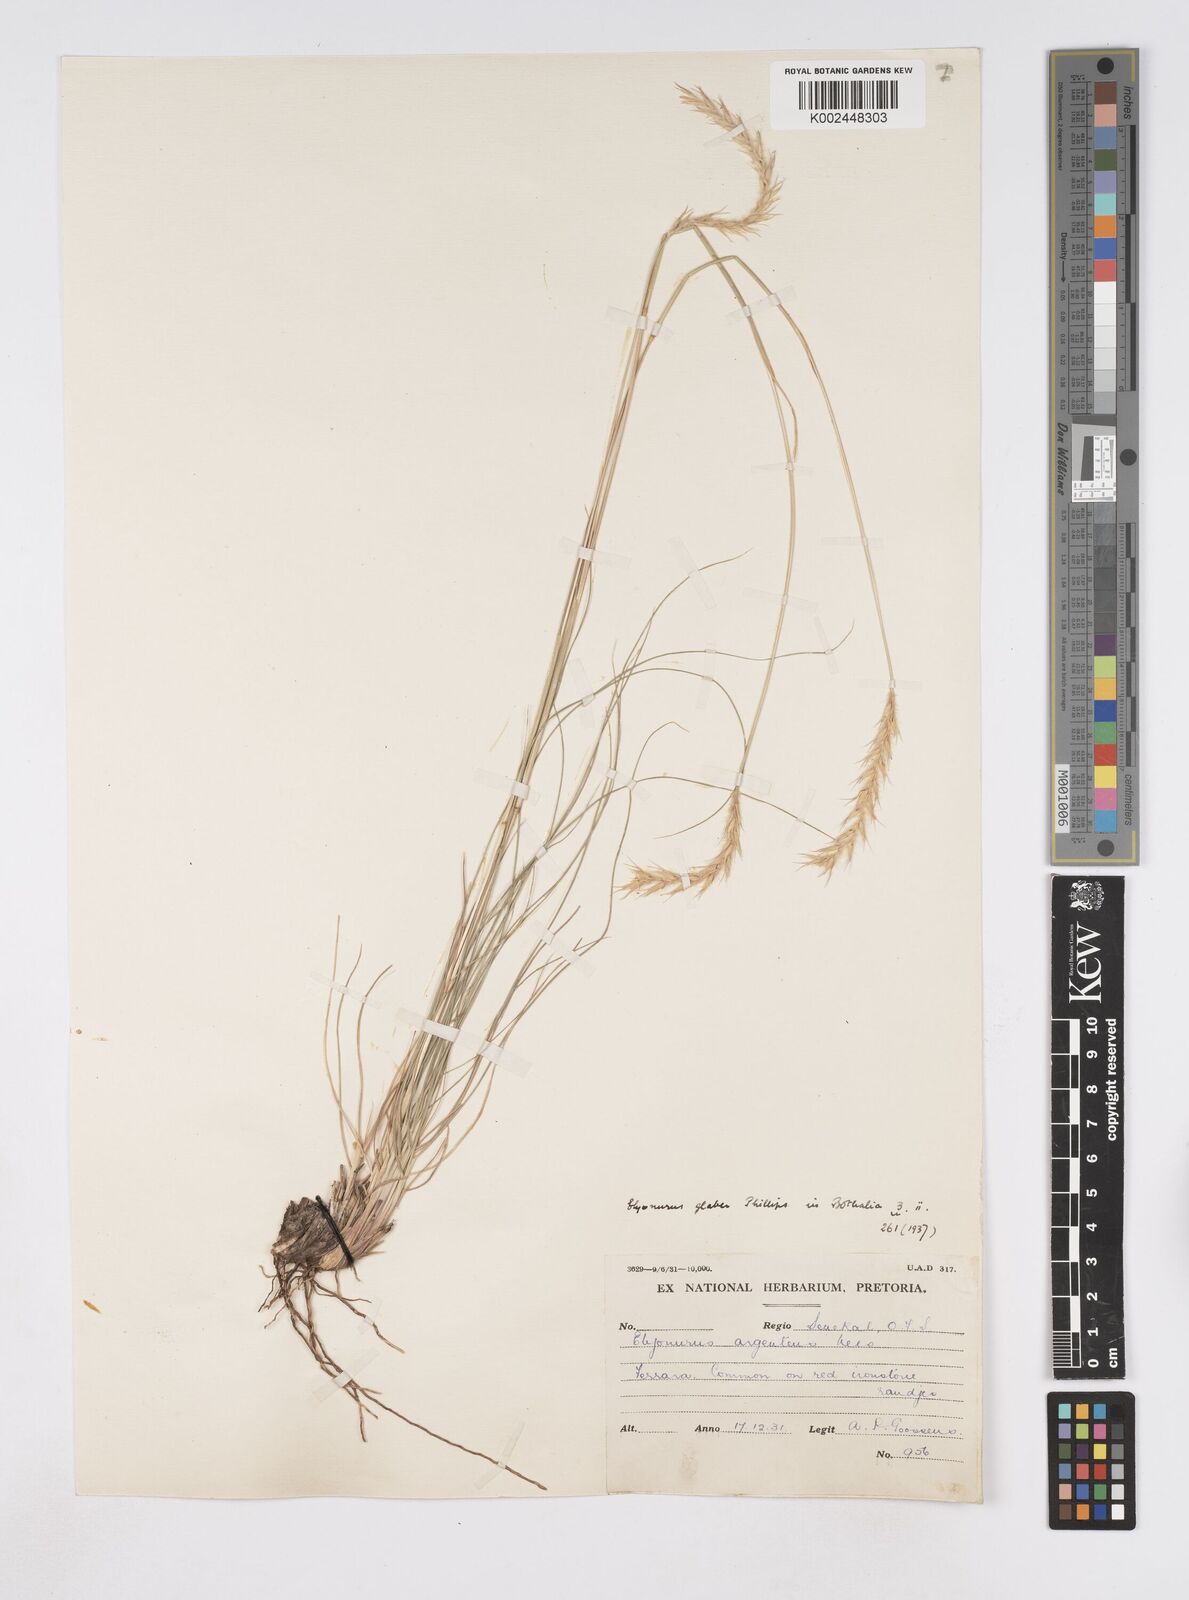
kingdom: Plantae
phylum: Tracheophyta
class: Liliopsida
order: Poales
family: Poaceae
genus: Elionurus
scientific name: Elionurus muticus
